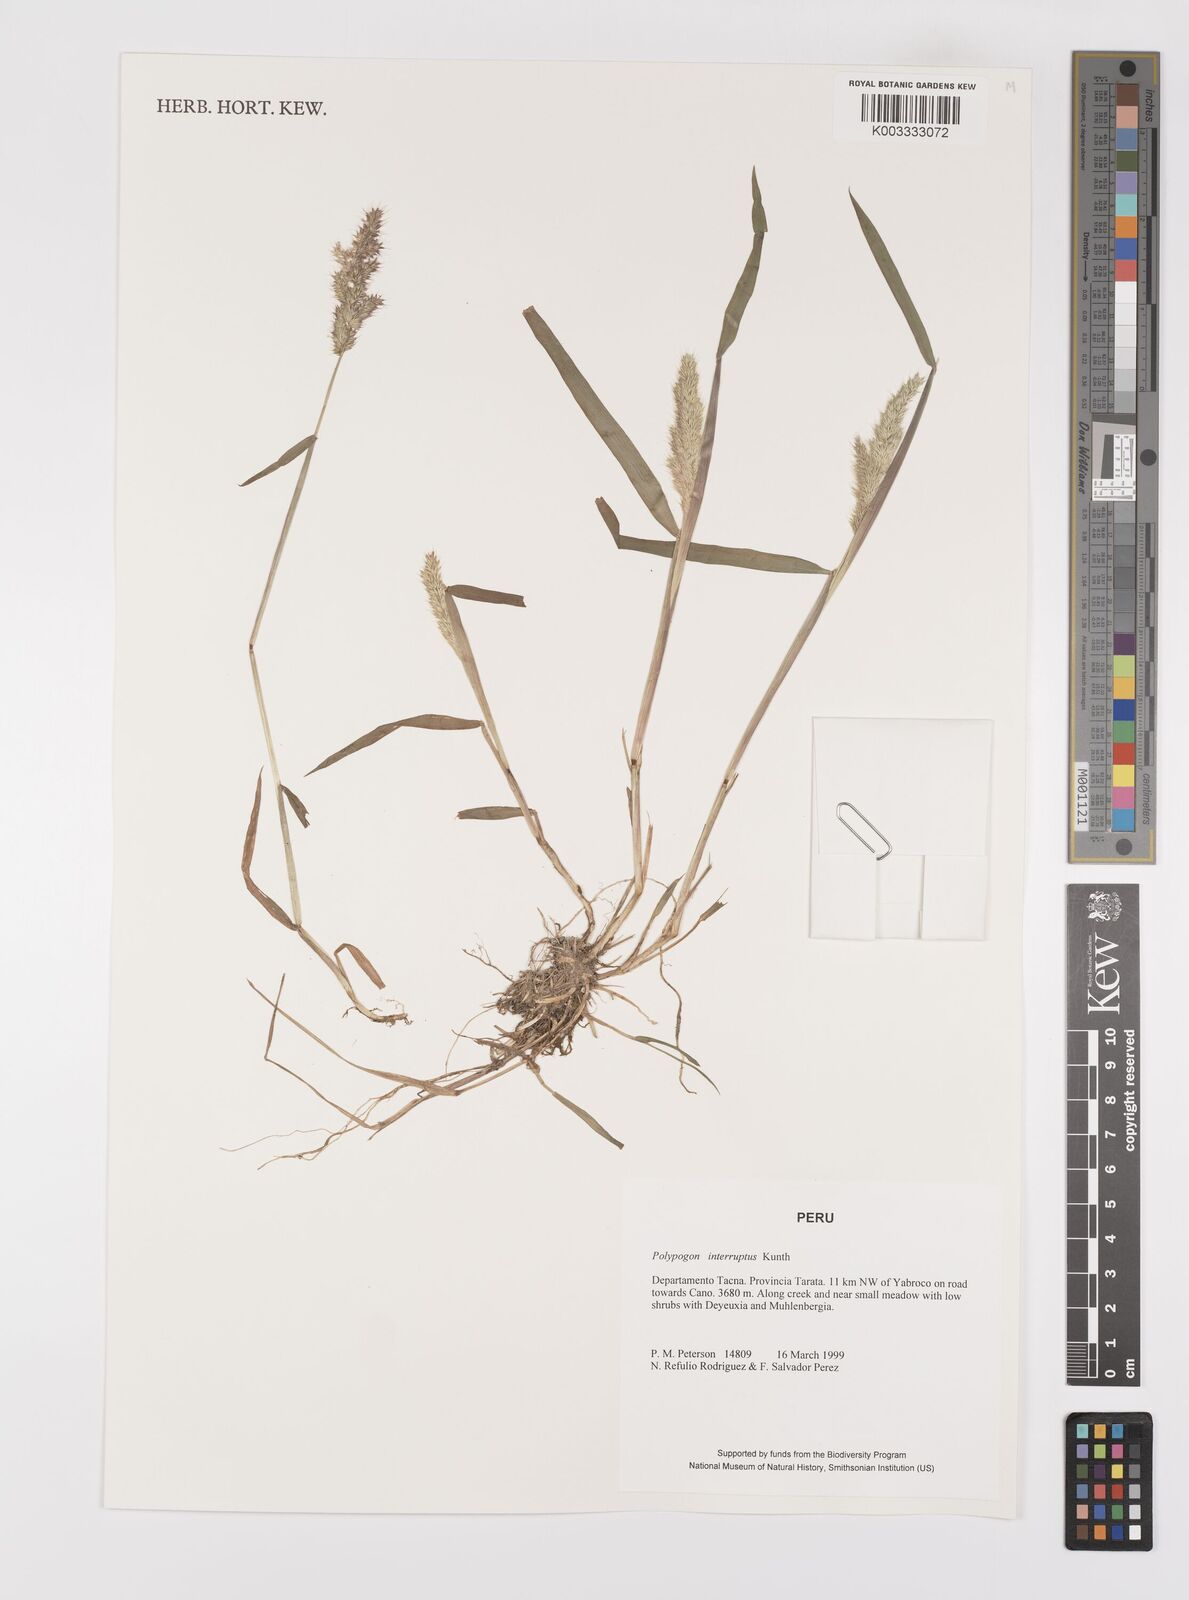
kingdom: Plantae
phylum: Tracheophyta
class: Liliopsida
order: Poales
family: Poaceae
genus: Polypogon
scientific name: Polypogon interruptus
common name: Ditch polypogon
